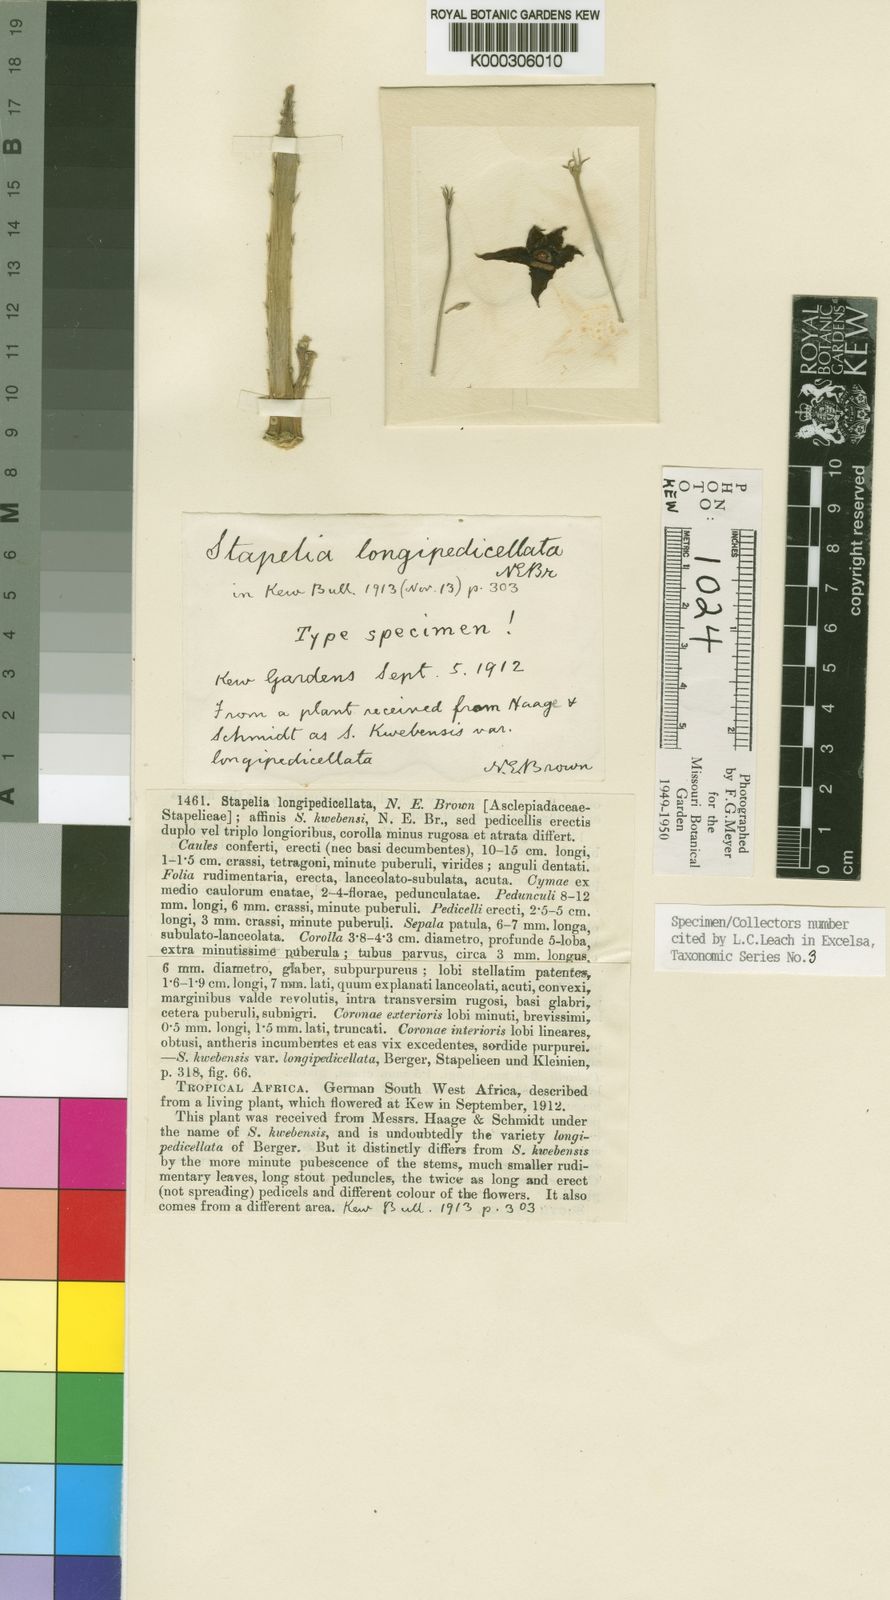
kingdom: Plantae
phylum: Tracheophyta
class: Magnoliopsida
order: Gentianales
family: Apocynaceae
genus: Ceropegia
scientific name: Ceropegia longipedicellata
